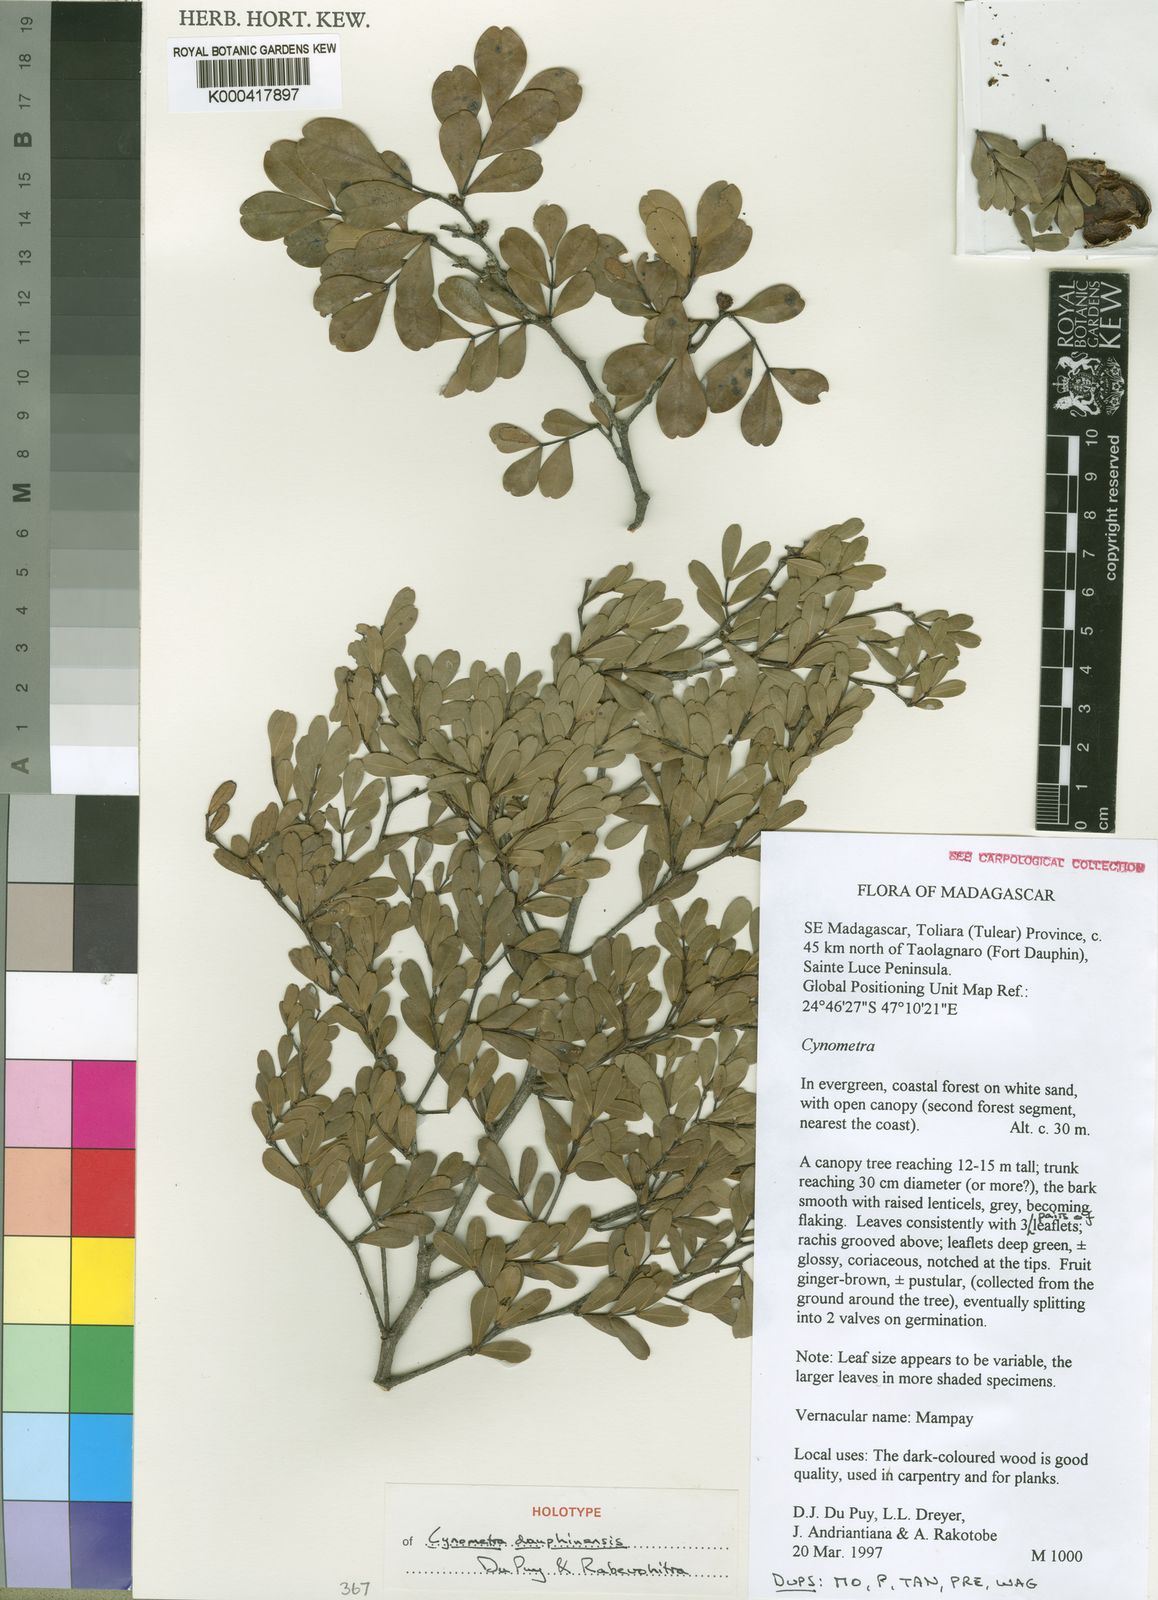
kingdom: Plantae
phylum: Tracheophyta
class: Magnoliopsida
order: Fabales
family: Fabaceae
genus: Cynometra
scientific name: Cynometra dauphinensis
